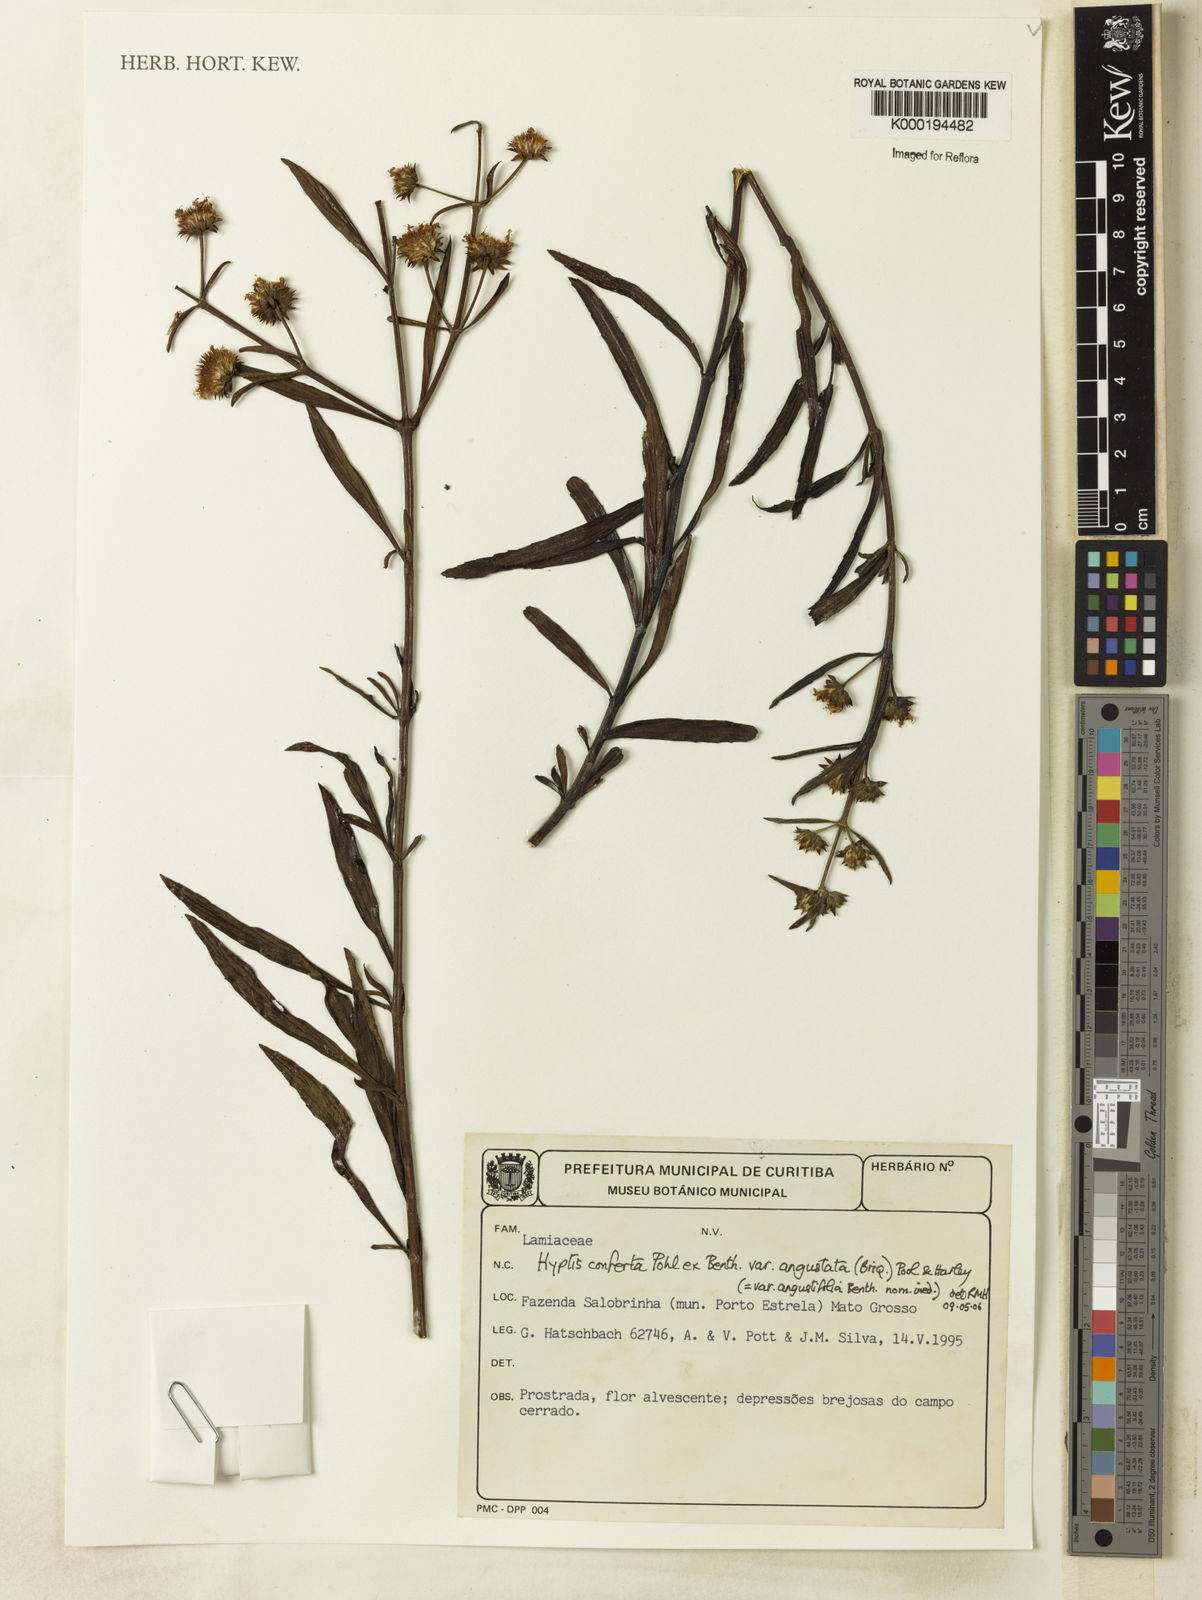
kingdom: Plantae
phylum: Tracheophyta
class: Magnoliopsida
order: Lamiales
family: Lamiaceae
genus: Hyptis
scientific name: Hyptis conferta
